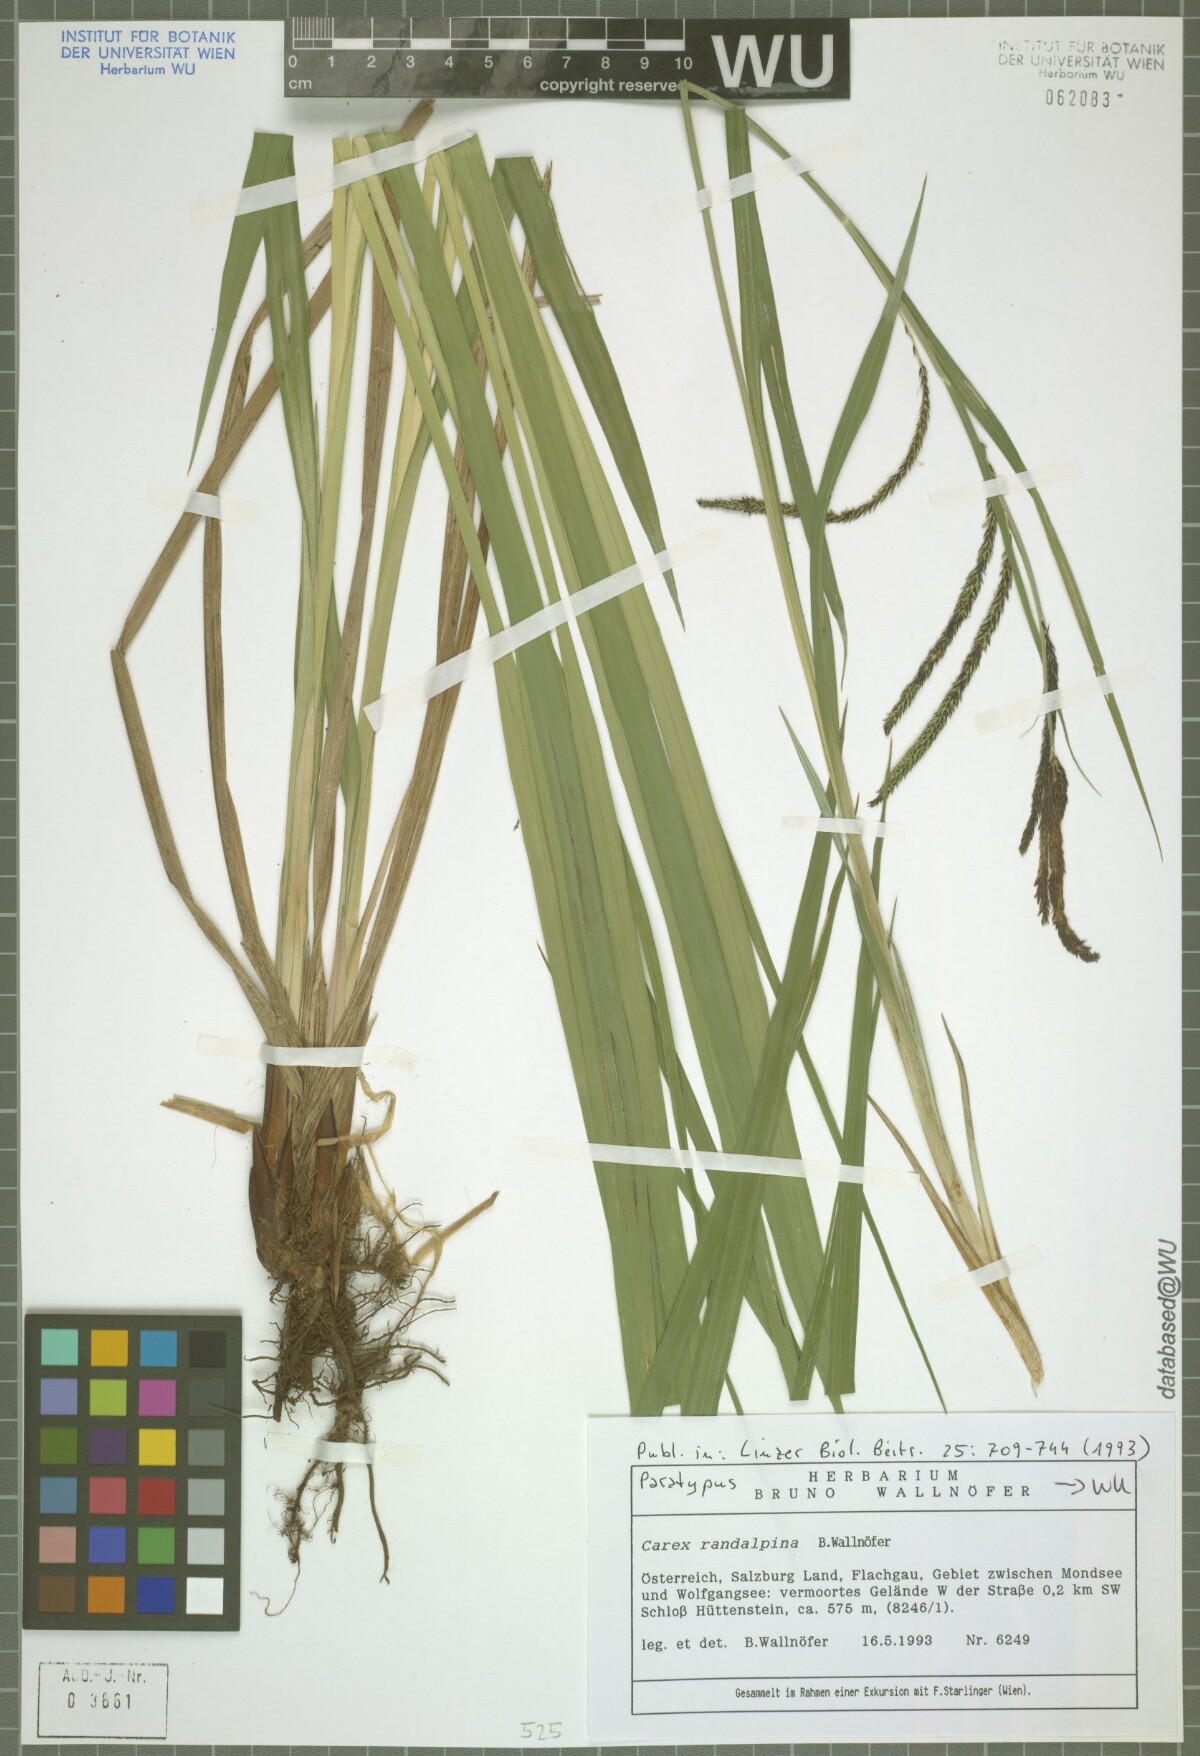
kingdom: Plantae
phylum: Tracheophyta
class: Liliopsida
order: Poales
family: Cyperaceae
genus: Carex
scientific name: Carex randalpina
